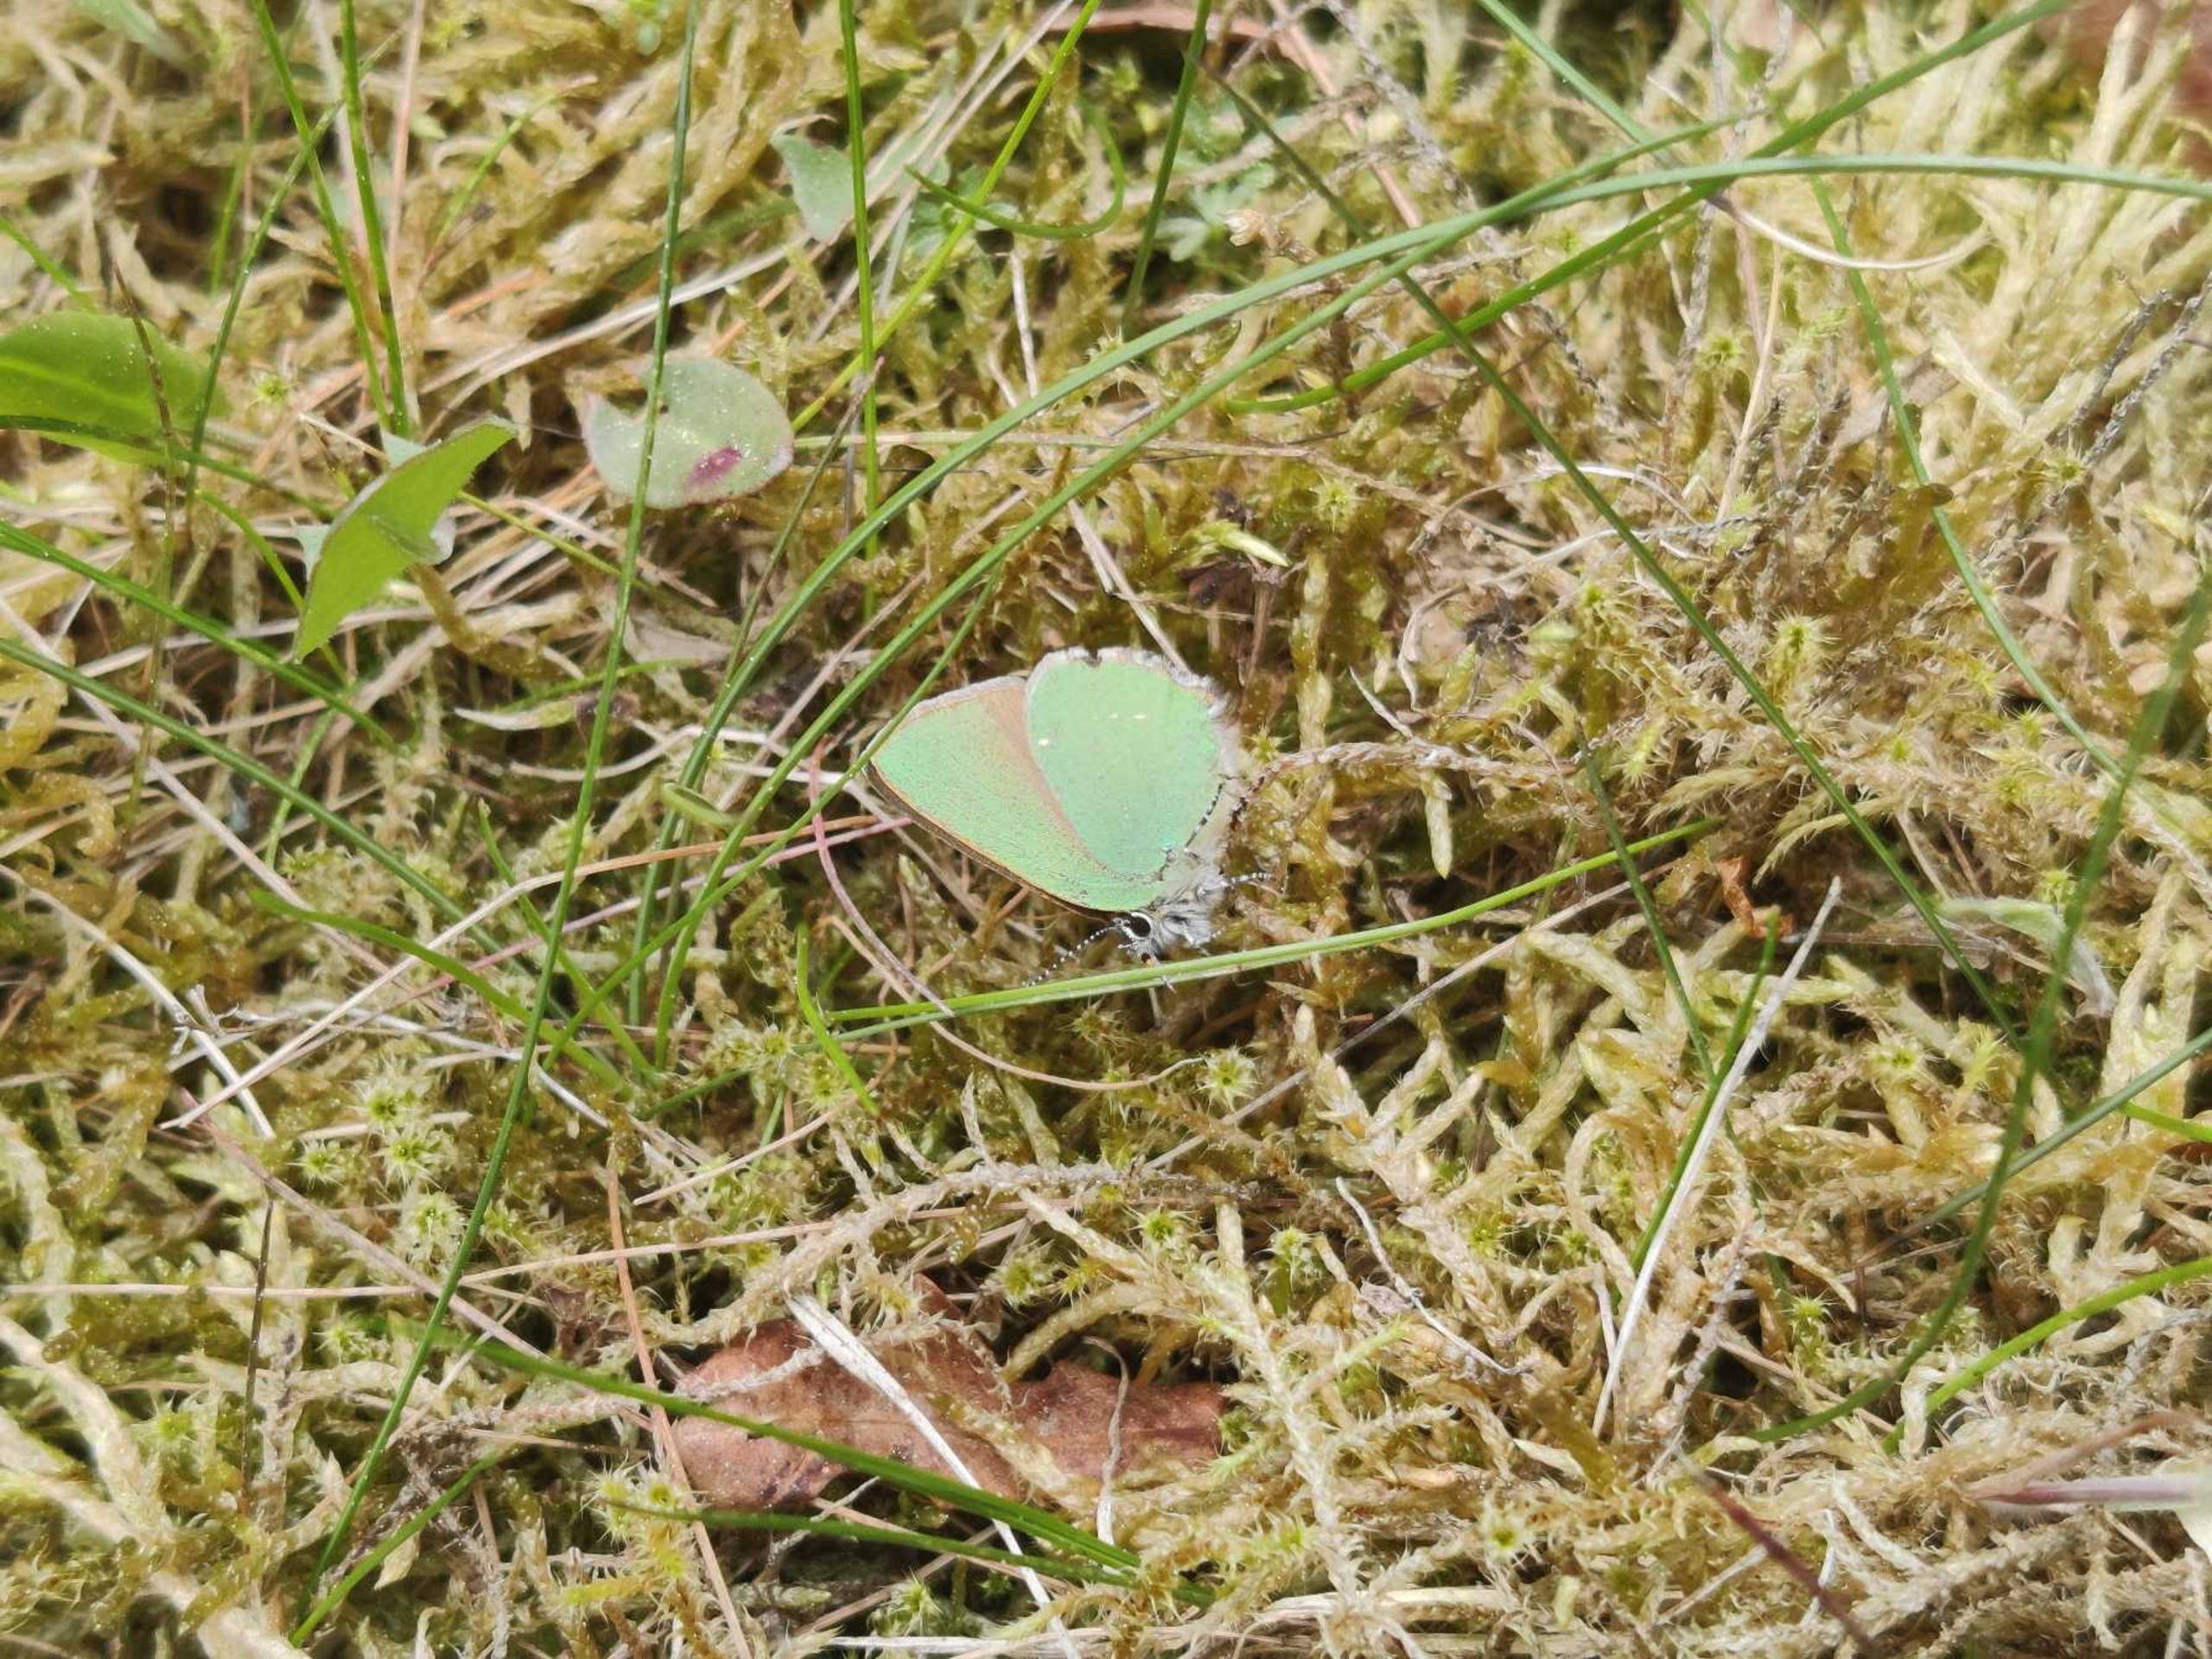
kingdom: Animalia
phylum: Arthropoda
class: Insecta
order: Lepidoptera
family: Lycaenidae
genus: Callophrys
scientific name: Callophrys rubi
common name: Grøn busksommerfugl
